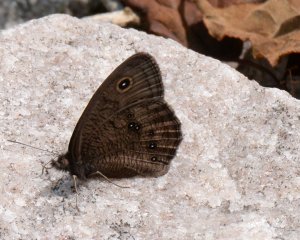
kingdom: Animalia
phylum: Arthropoda
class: Insecta
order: Lepidoptera
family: Nymphalidae
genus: Cercyonis
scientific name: Cercyonis pegala
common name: Common Wood-Nymph
